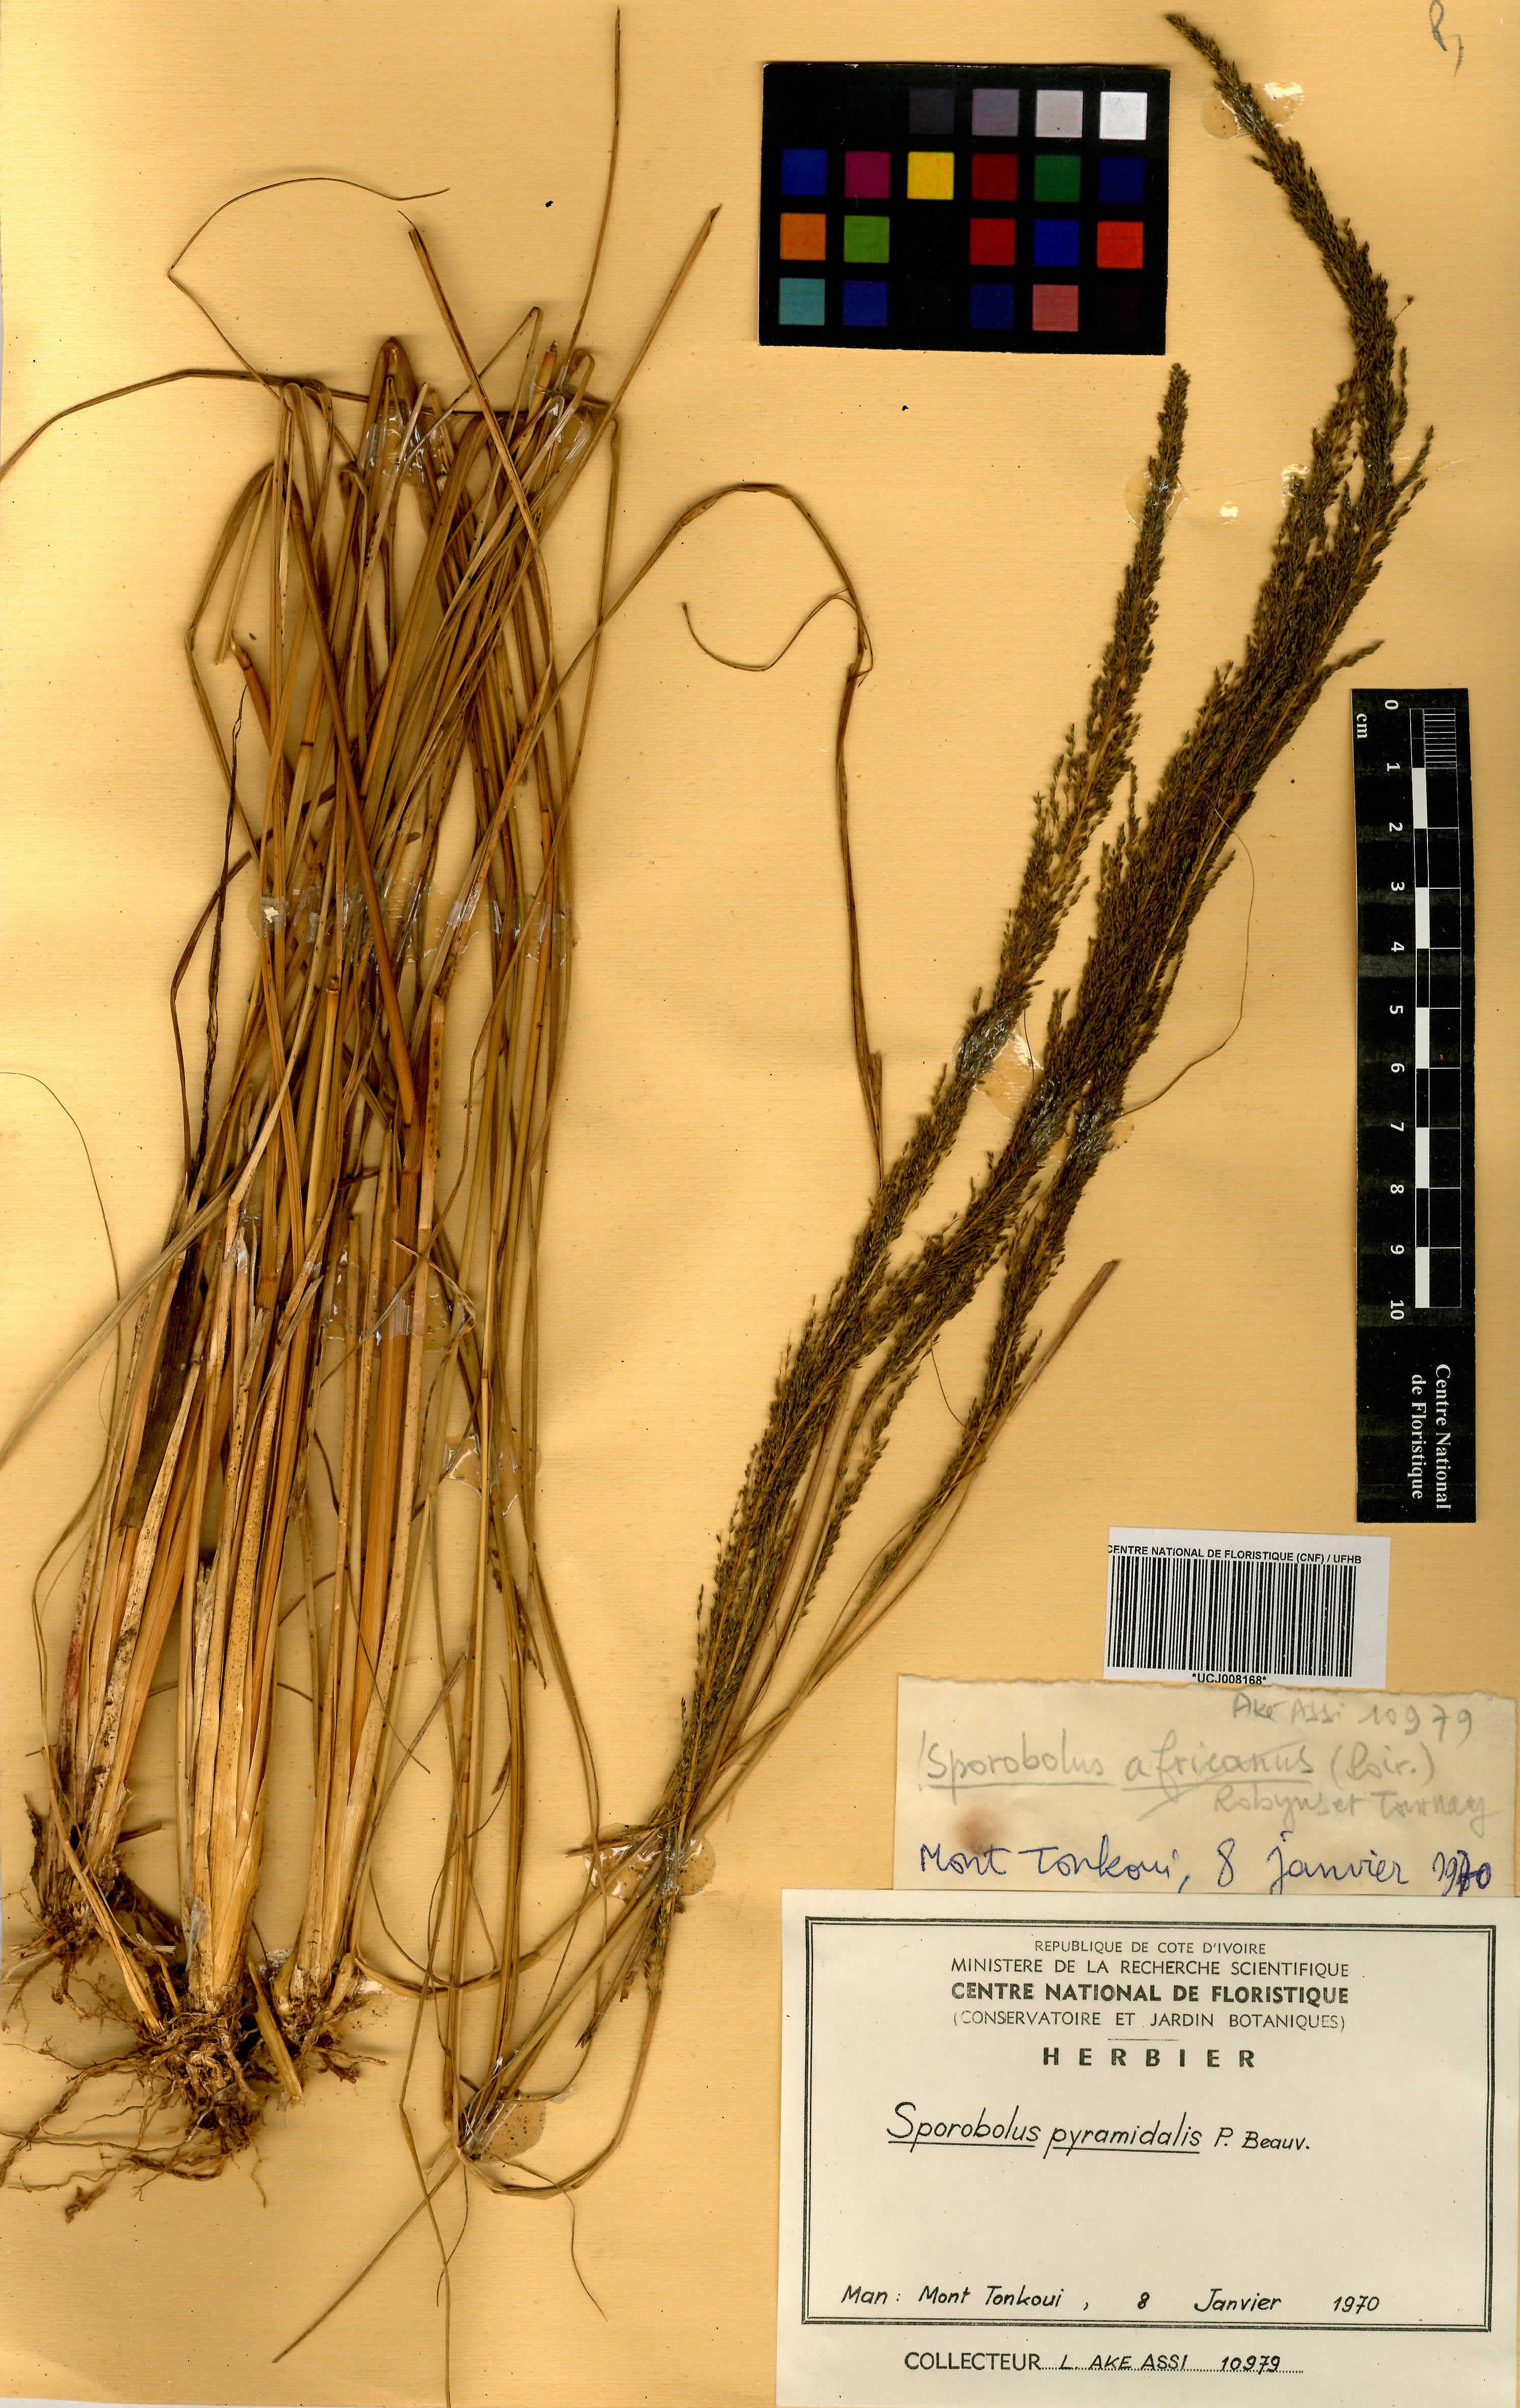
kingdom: Plantae
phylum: Tracheophyta
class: Liliopsida
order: Poales
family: Poaceae
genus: Sporobolus
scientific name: Sporobolus pyramidalis
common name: West indian dropseed
